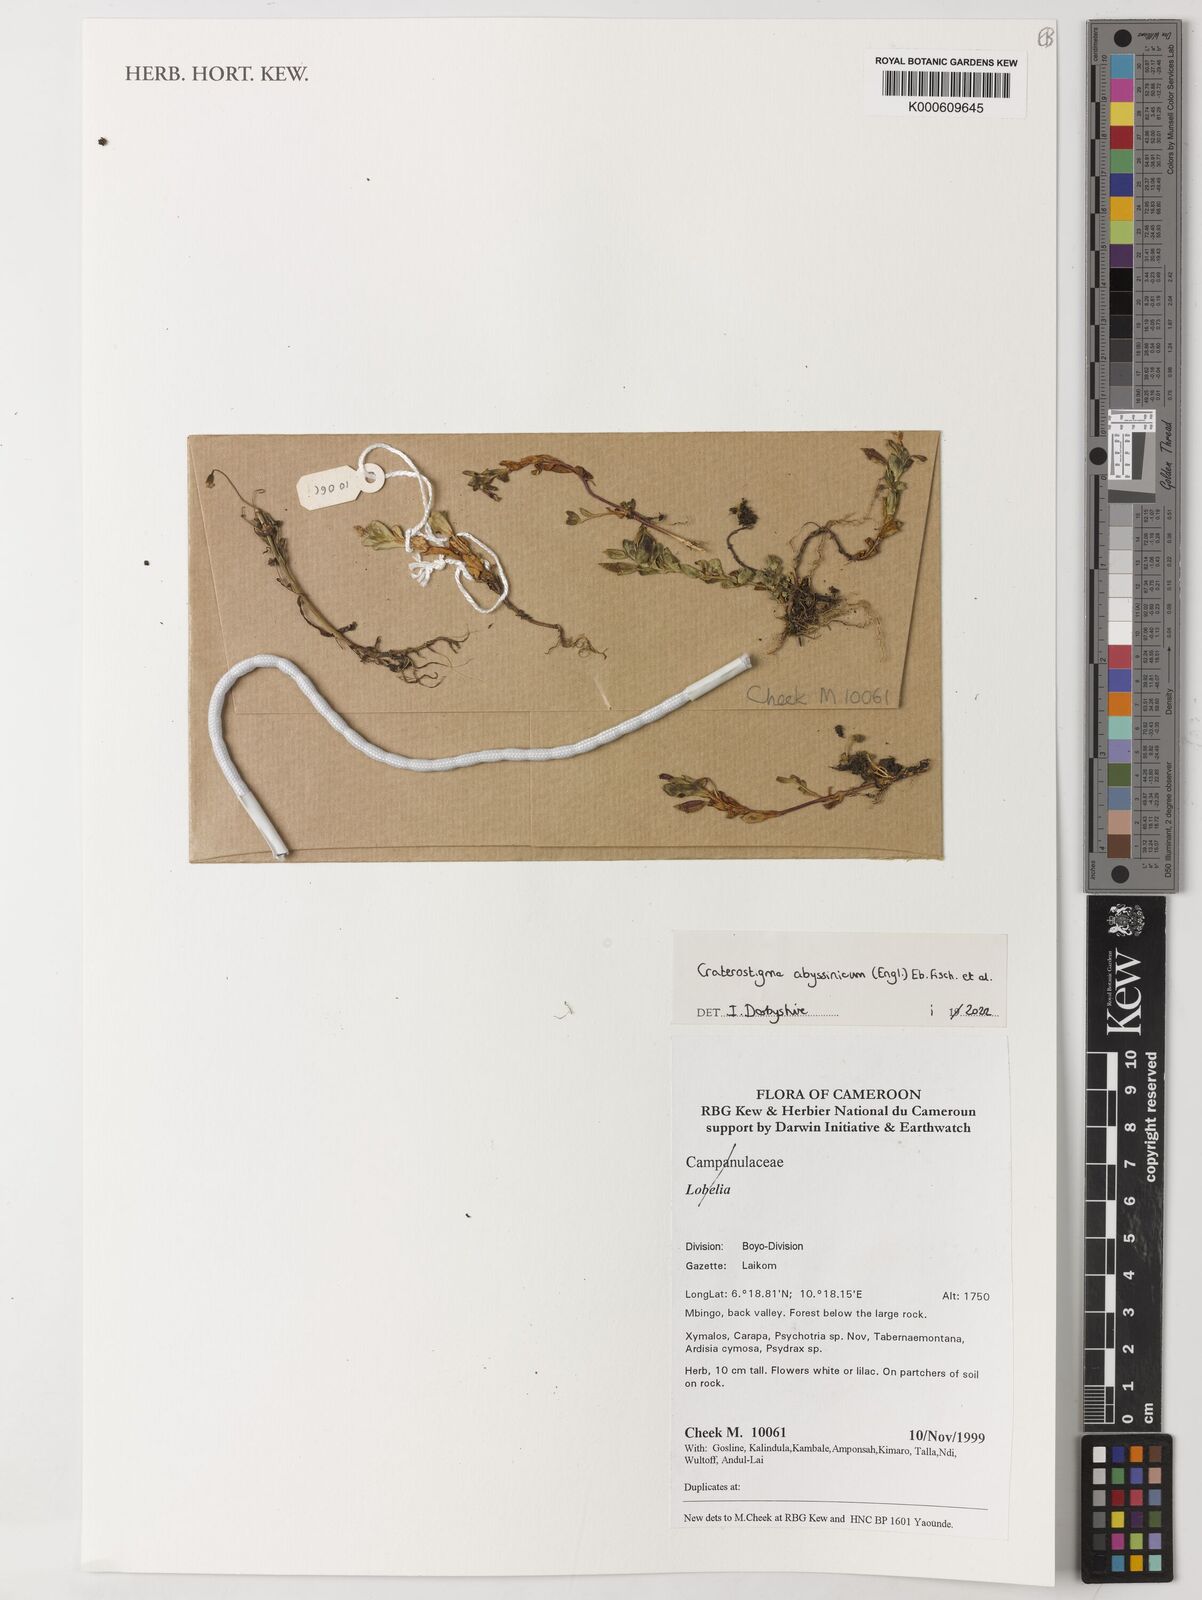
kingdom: Plantae
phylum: Tracheophyta
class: Magnoliopsida
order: Lamiales
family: Linderniaceae
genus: Craterostigma
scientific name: Craterostigma abyssinicum
